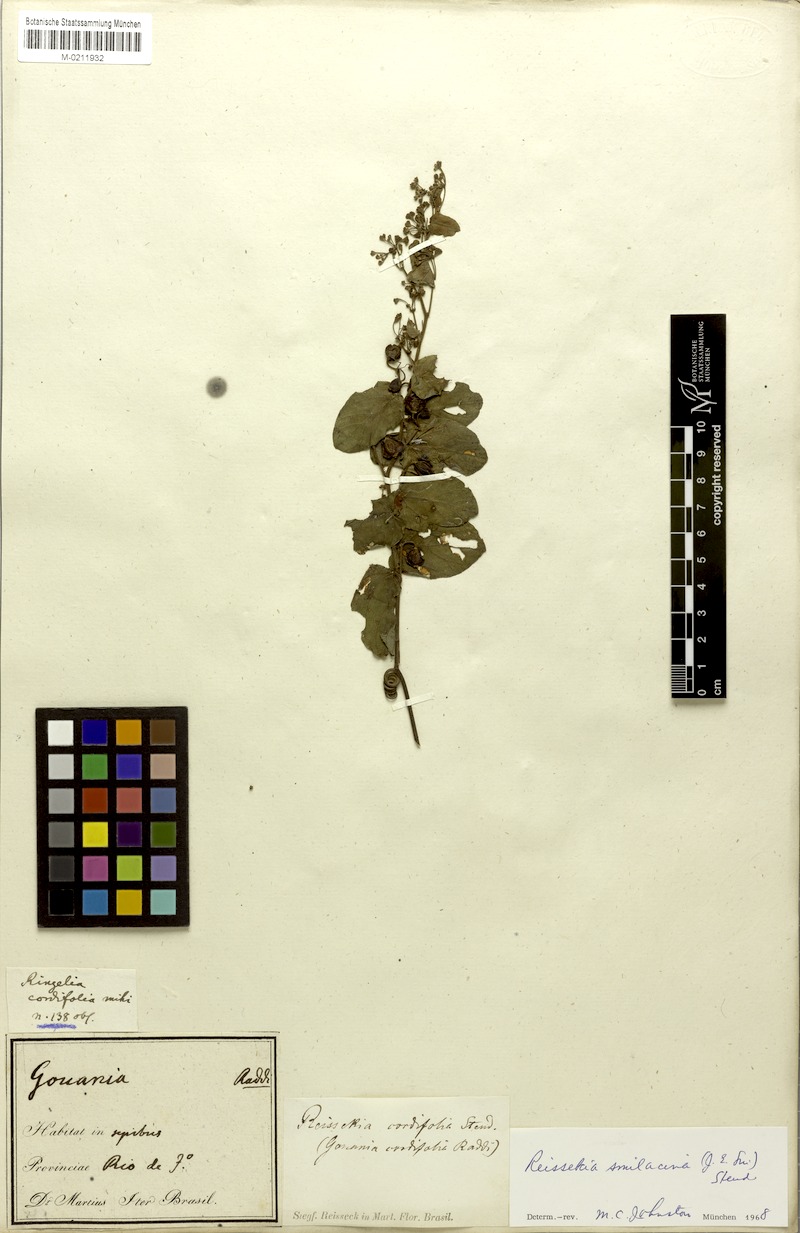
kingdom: Plantae
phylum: Tracheophyta
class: Magnoliopsida
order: Rosales
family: Rhamnaceae
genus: Reissekia
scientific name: Reissekia smilacina
